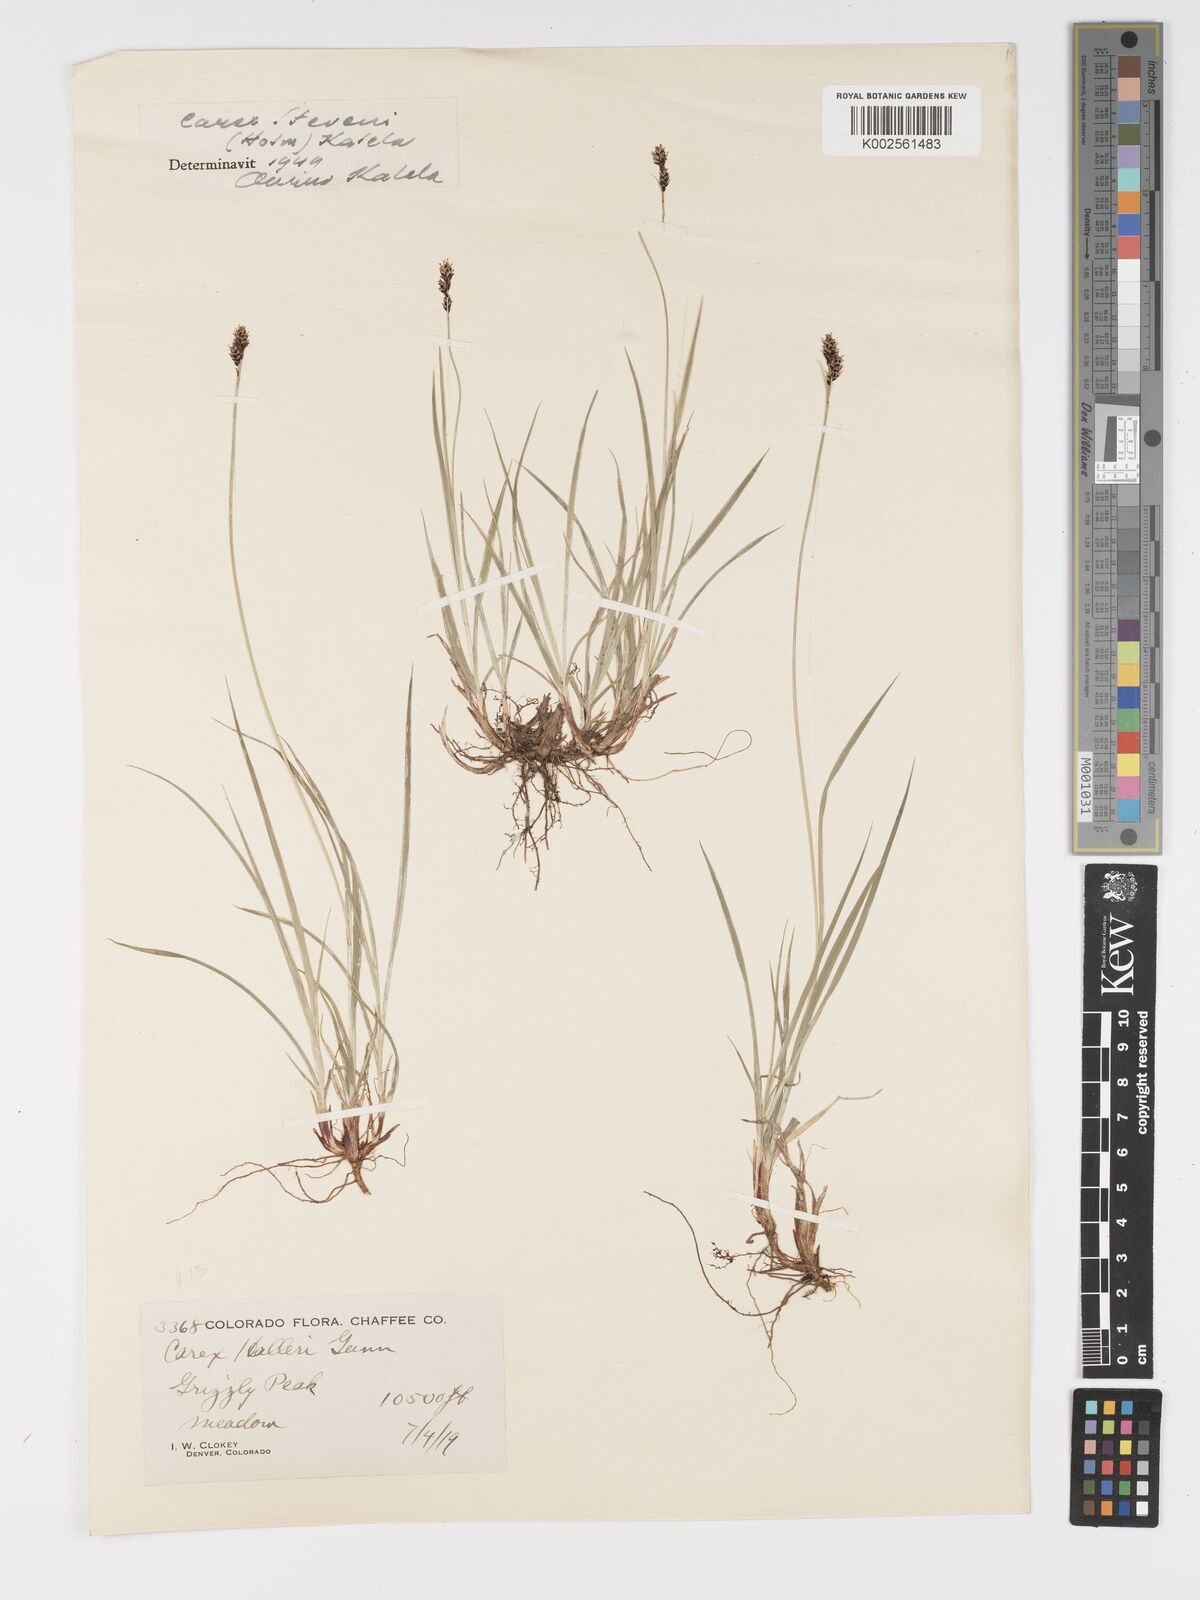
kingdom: Plantae
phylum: Tracheophyta
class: Liliopsida
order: Poales
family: Cyperaceae
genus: Carex
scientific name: Carex stevenii
